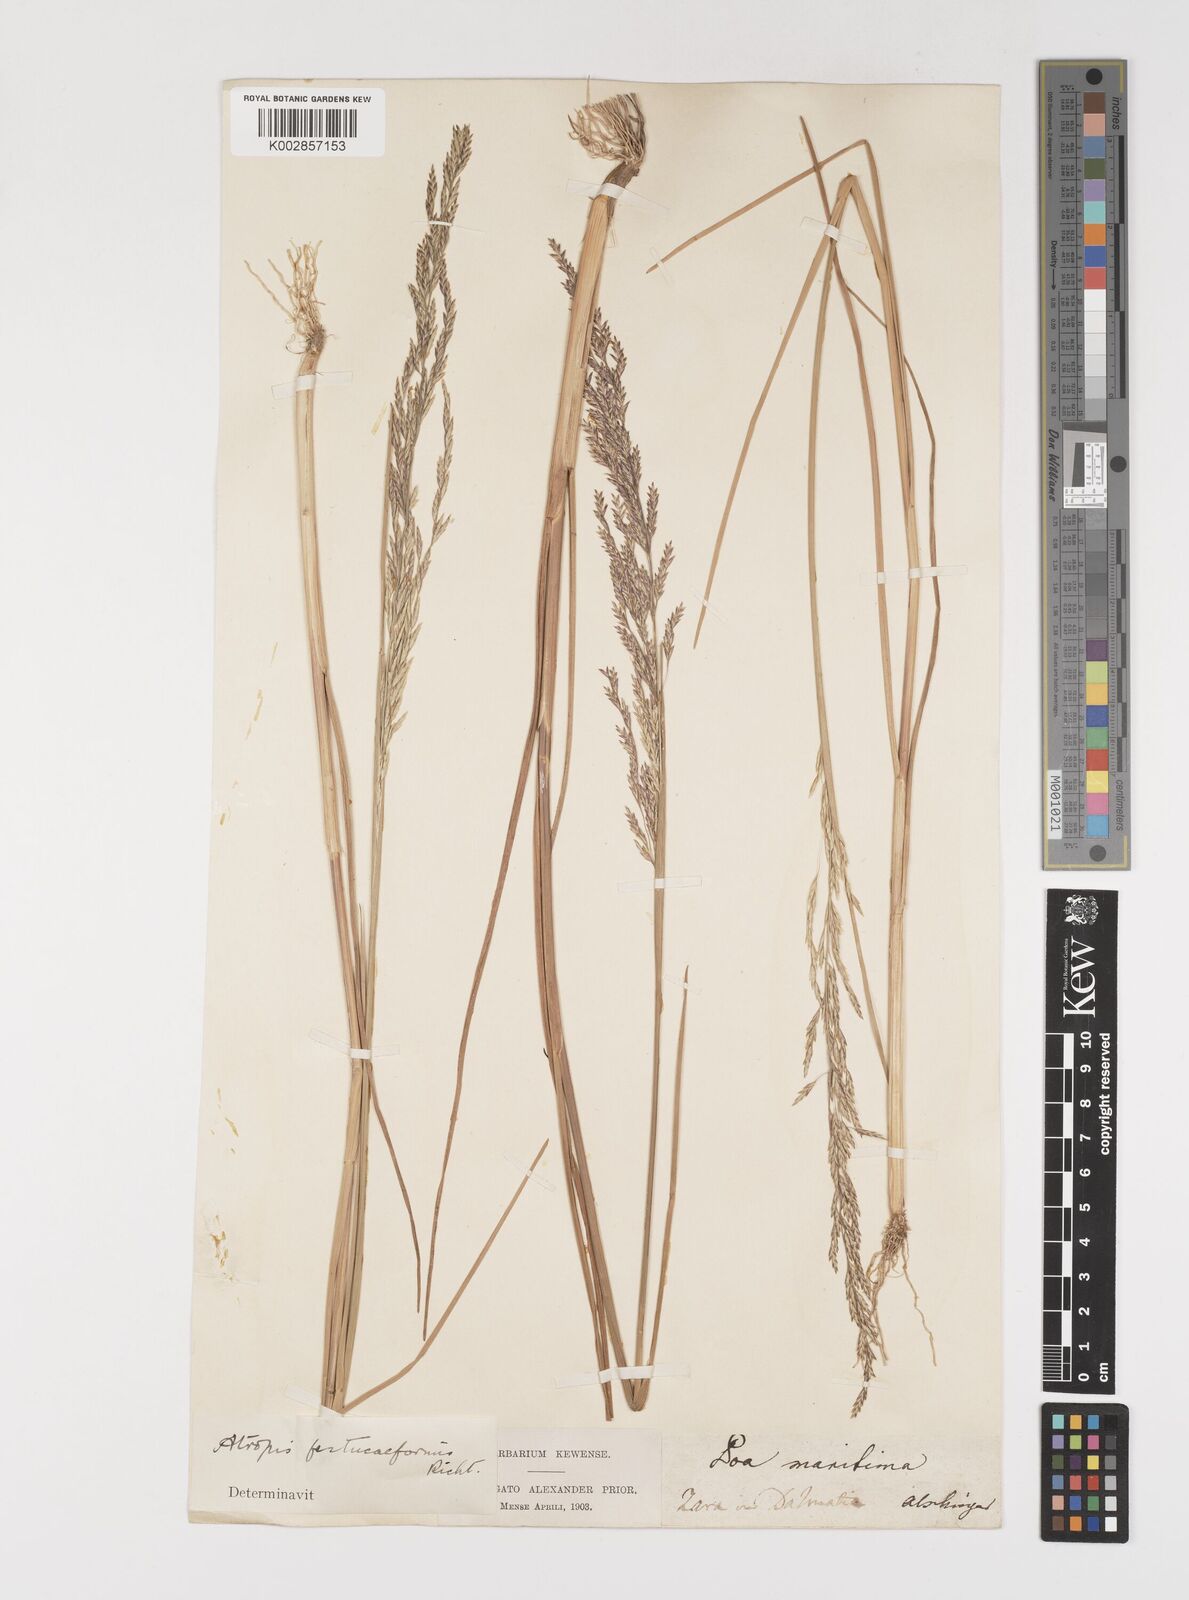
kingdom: Plantae
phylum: Tracheophyta
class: Liliopsida
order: Poales
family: Poaceae
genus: Puccinellia
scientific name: Puccinellia festuciformis
